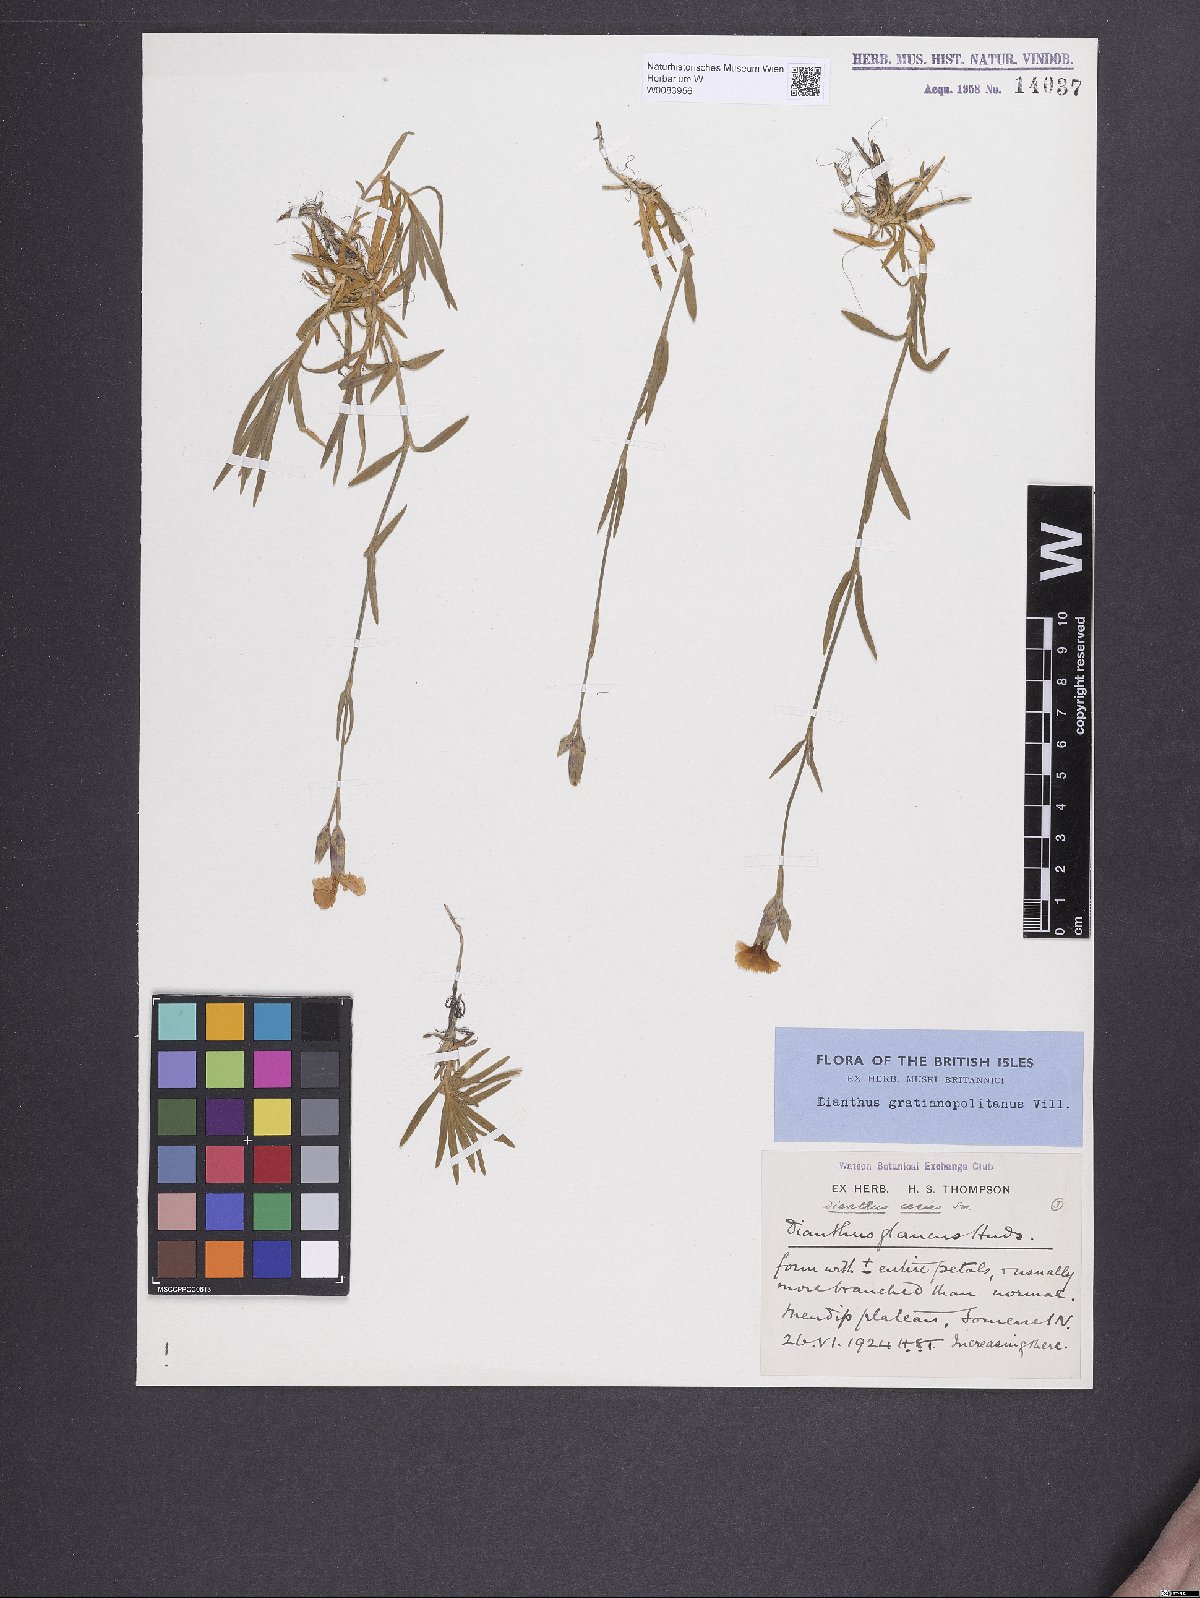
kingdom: Plantae
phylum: Tracheophyta
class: Magnoliopsida
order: Caryophyllales
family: Caryophyllaceae
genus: Dianthus
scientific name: Dianthus gratianopolitanus
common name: Cheddar pink
